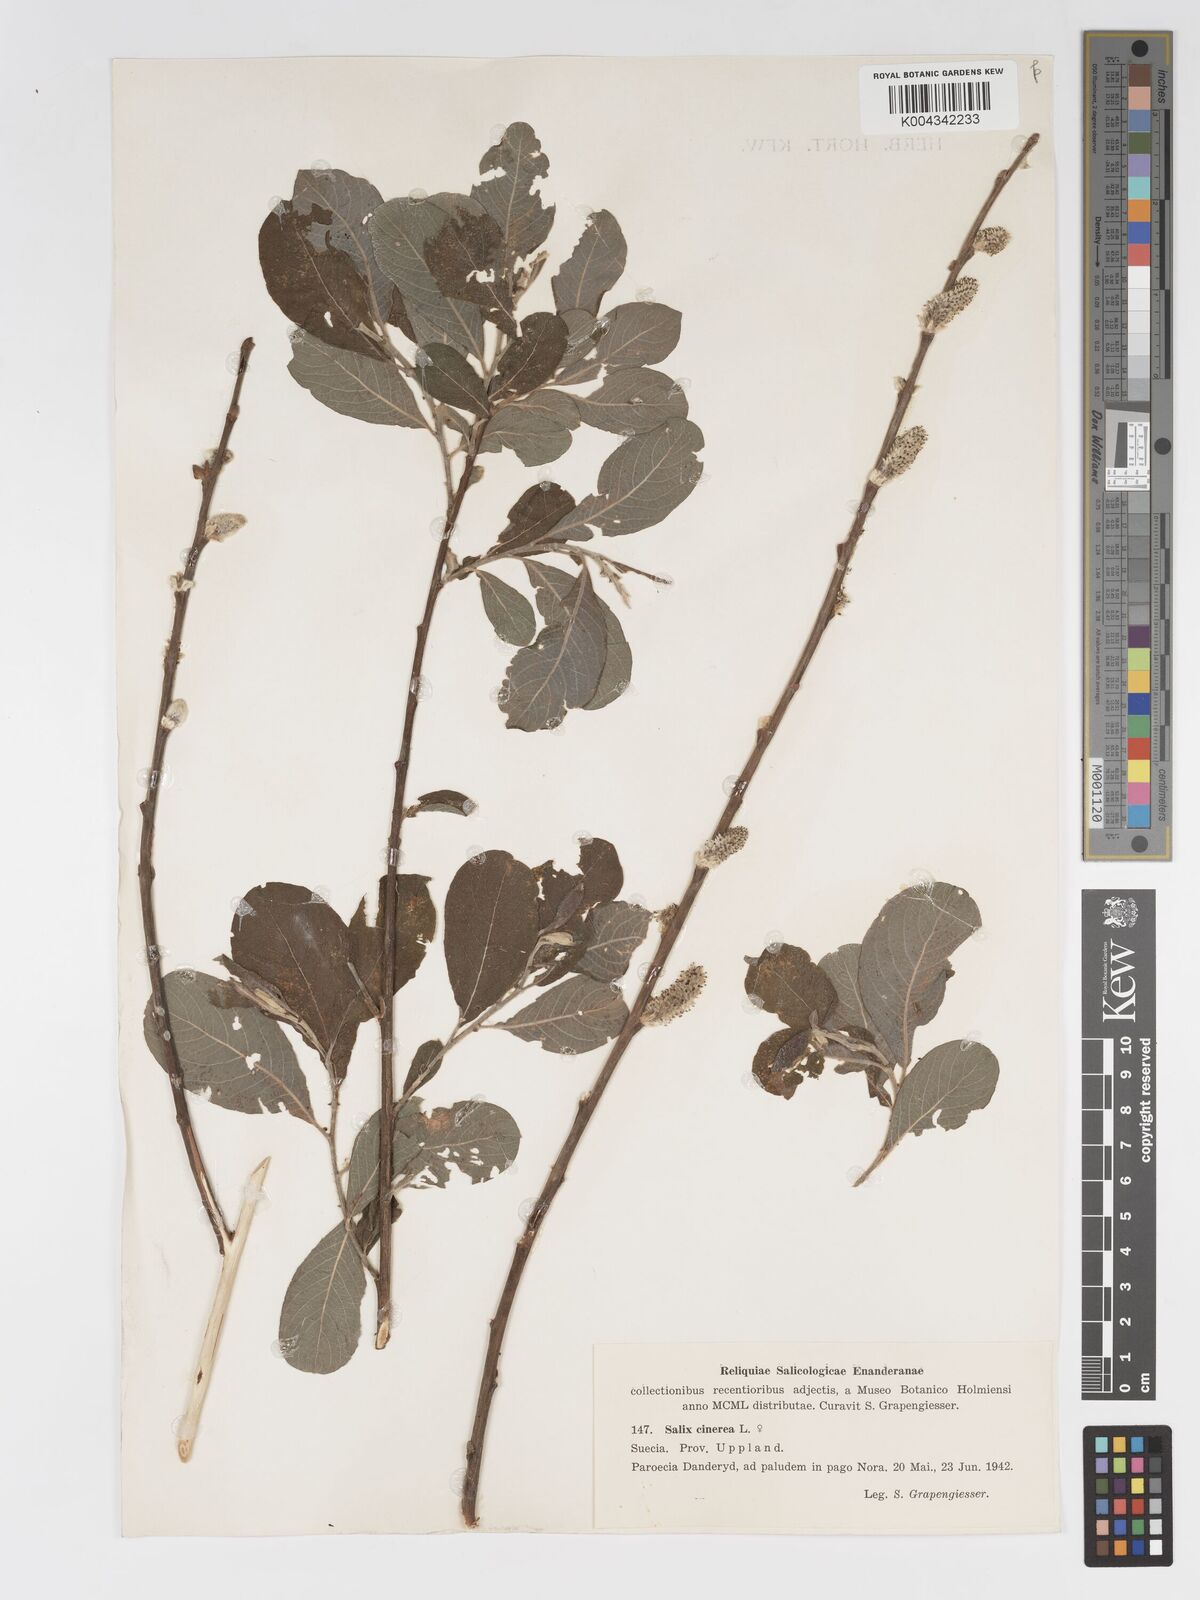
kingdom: Plantae
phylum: Tracheophyta
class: Magnoliopsida
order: Malpighiales
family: Salicaceae
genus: Salix
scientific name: Salix
